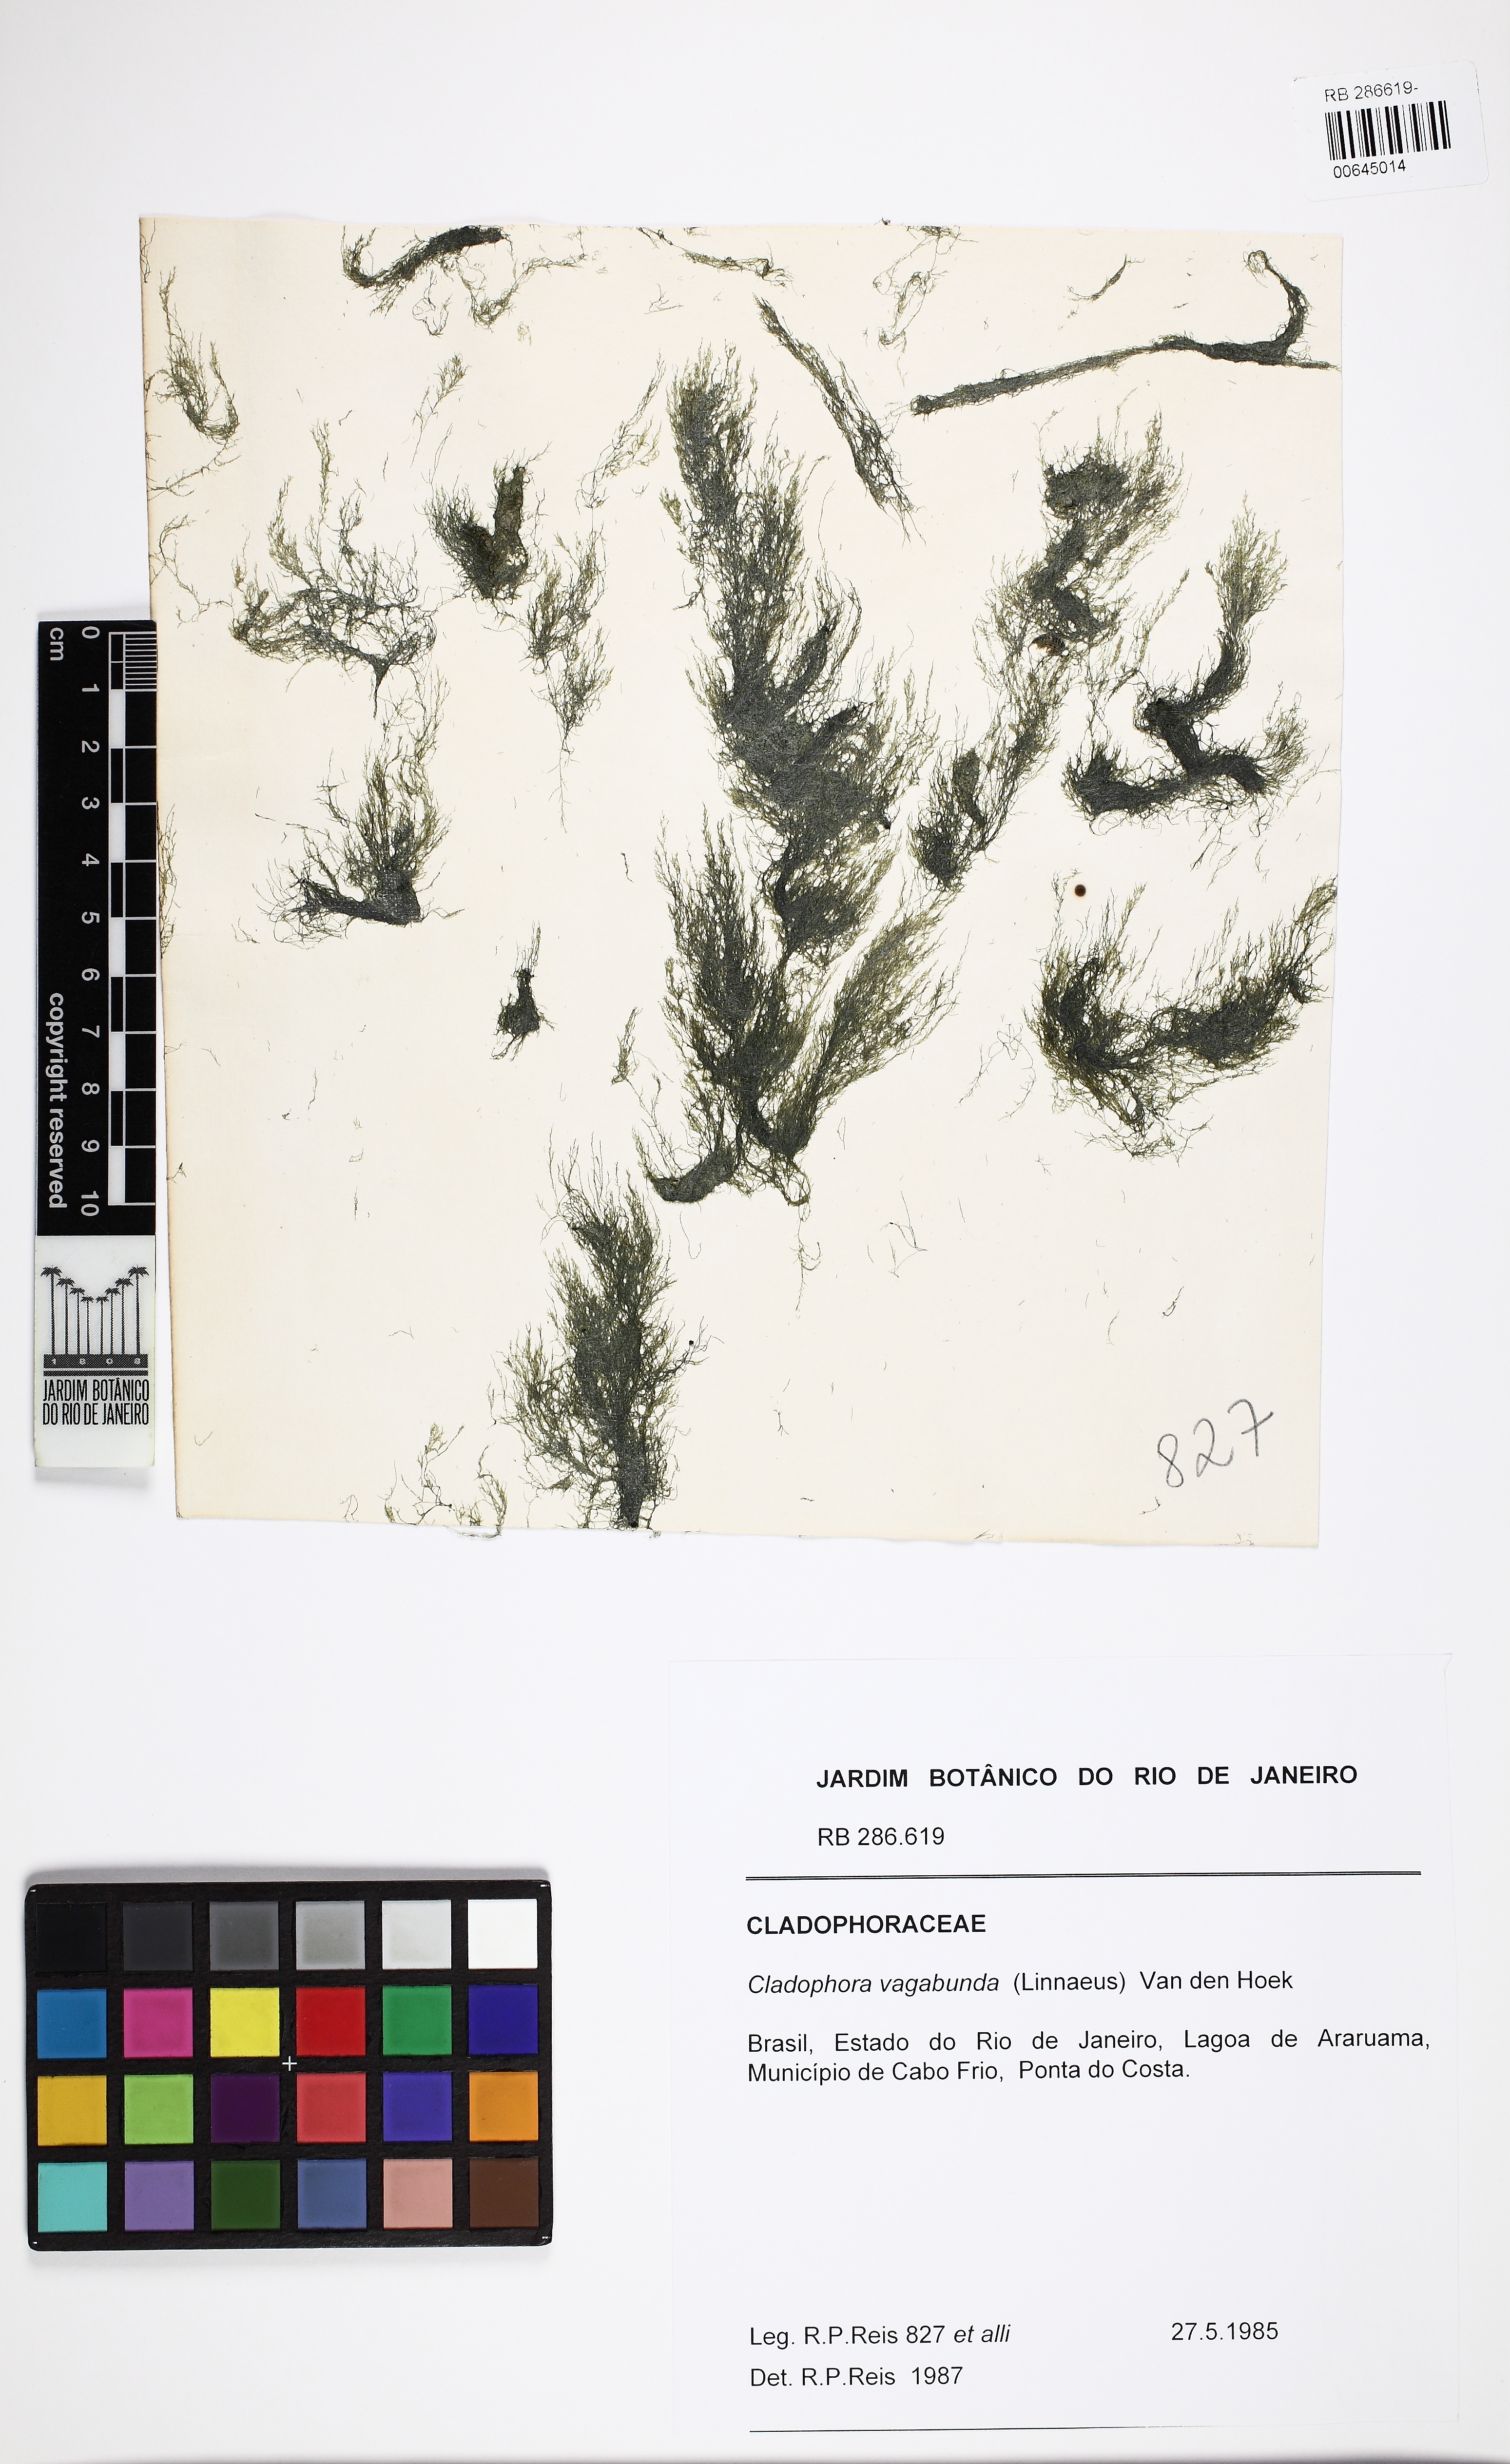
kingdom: Plantae
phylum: Chlorophyta
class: Ulvophyceae
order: Cladophorales
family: Cladophoraceae
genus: Cladophora
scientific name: Cladophora vagabunda
